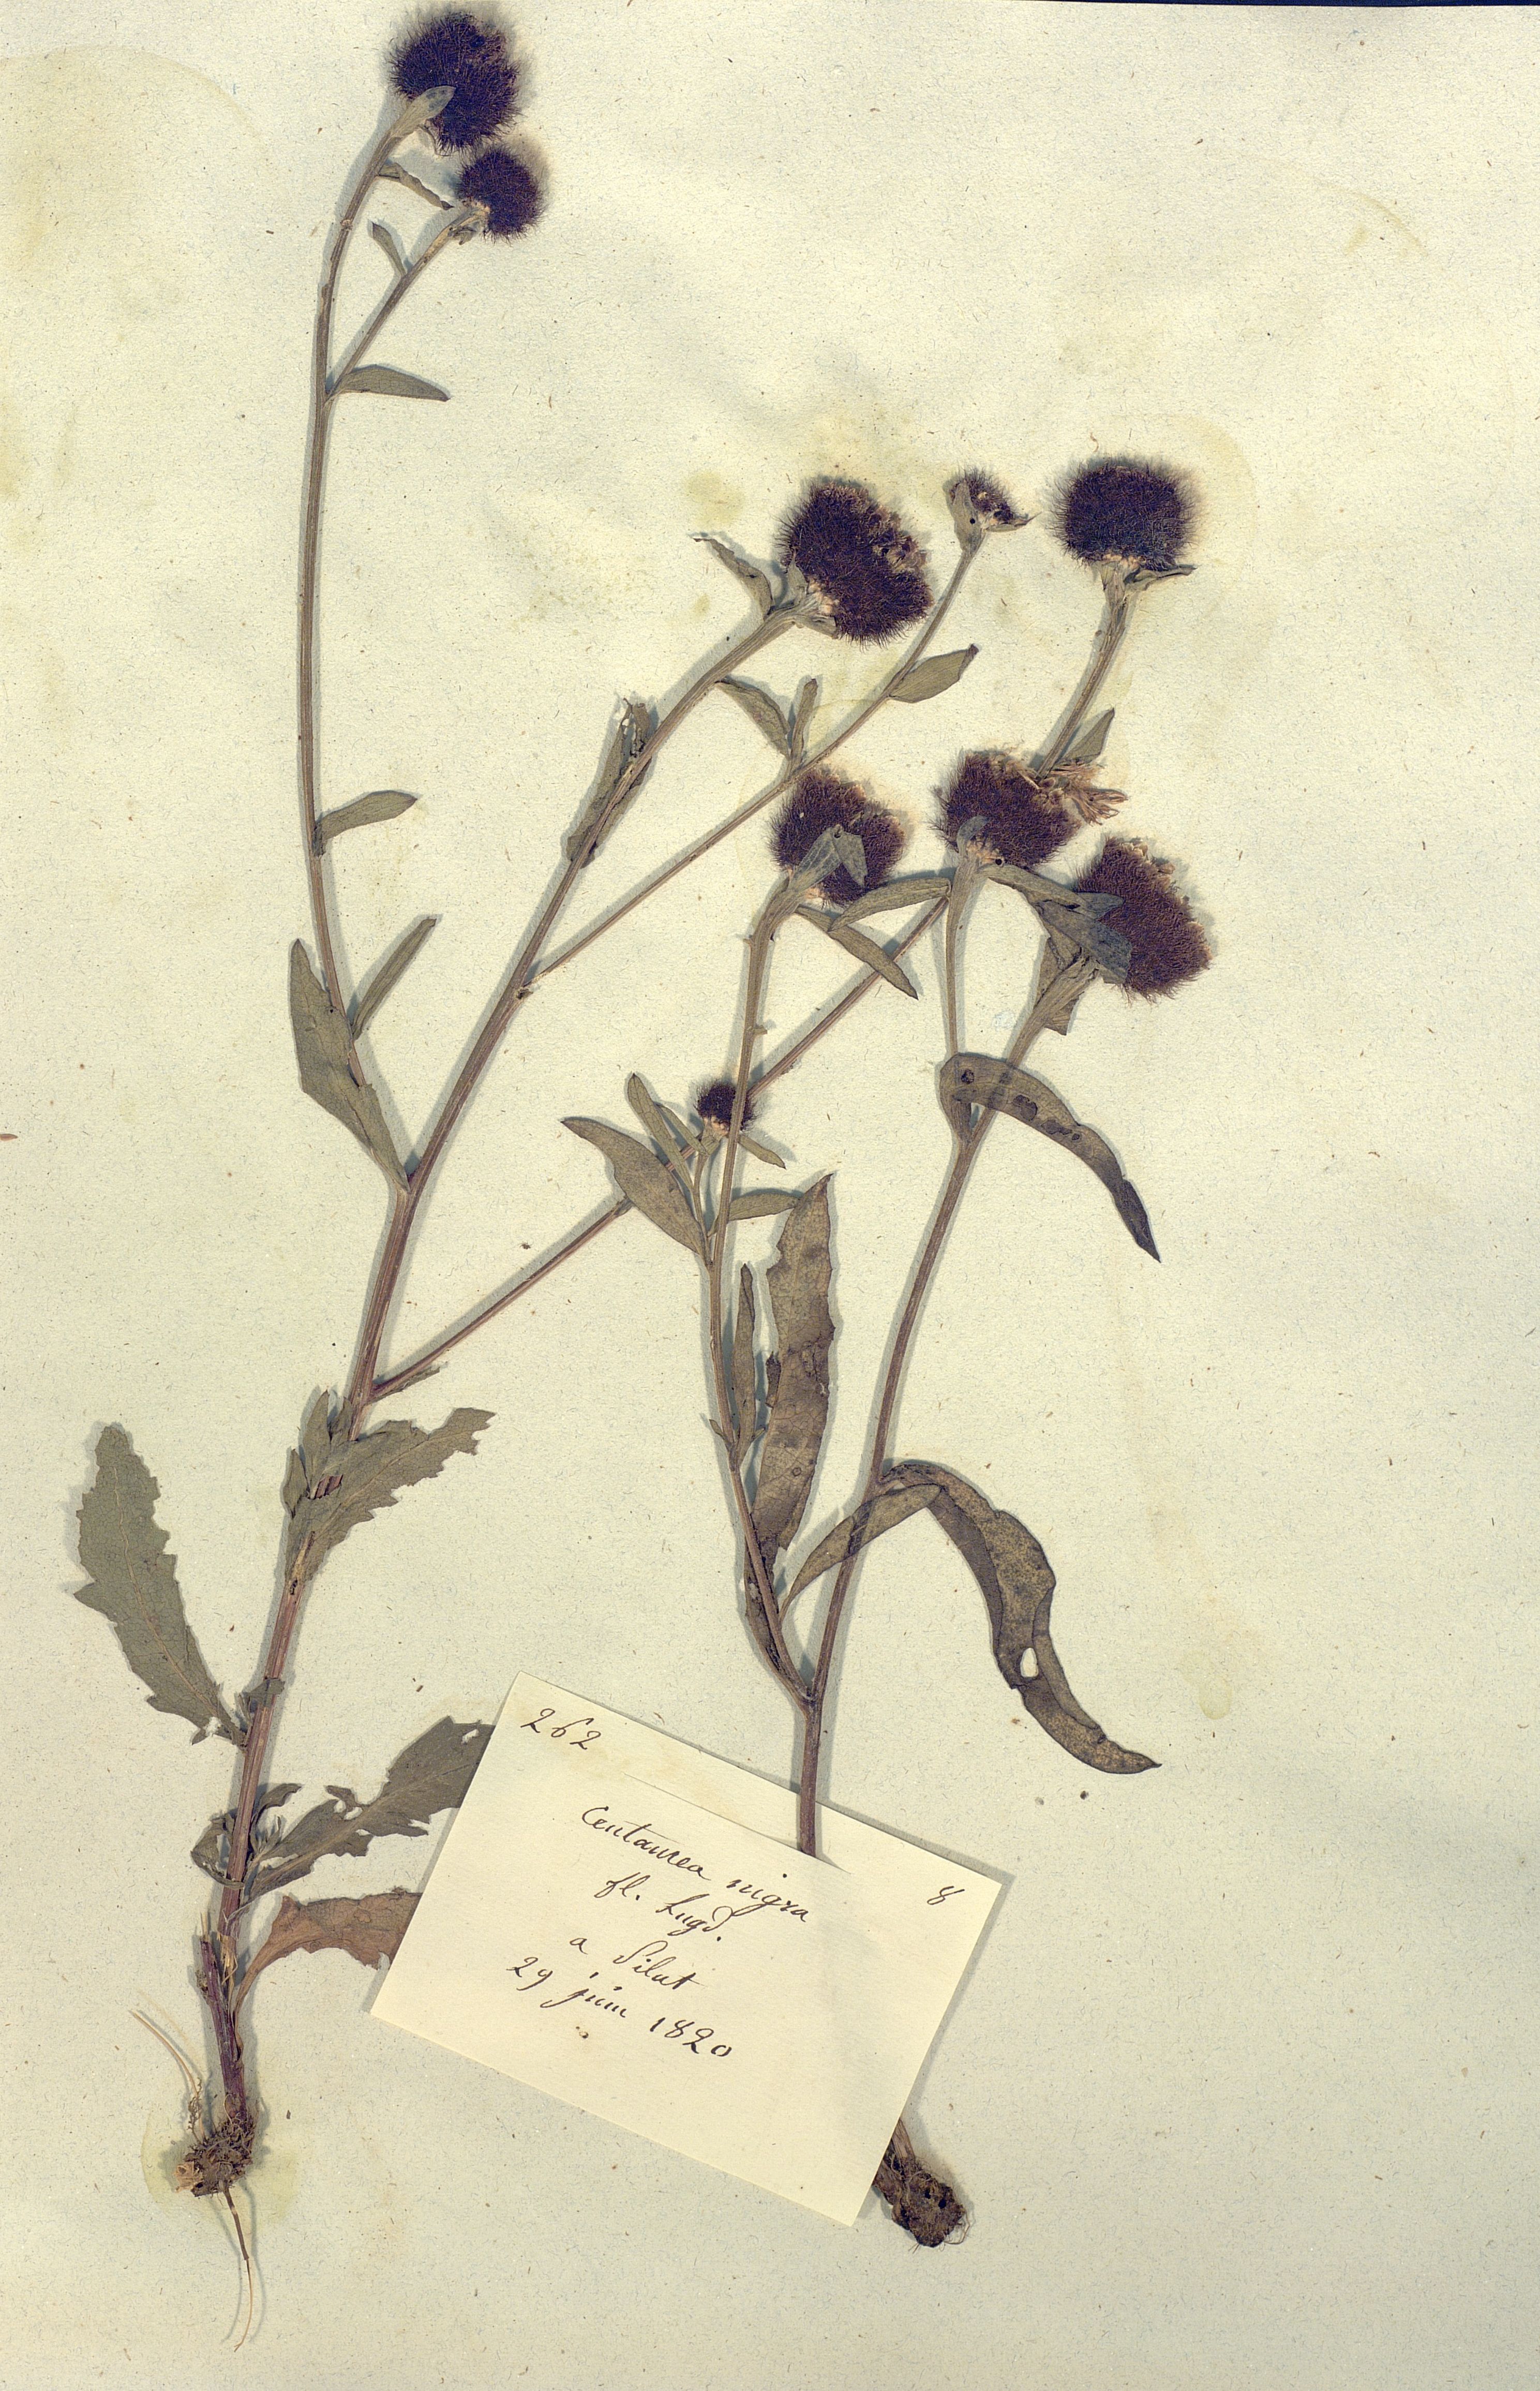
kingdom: Plantae
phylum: Tracheophyta
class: Magnoliopsida
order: Asterales
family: Asteraceae
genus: Centaurea
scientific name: Centaurea nigra
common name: Lesser knapweed
